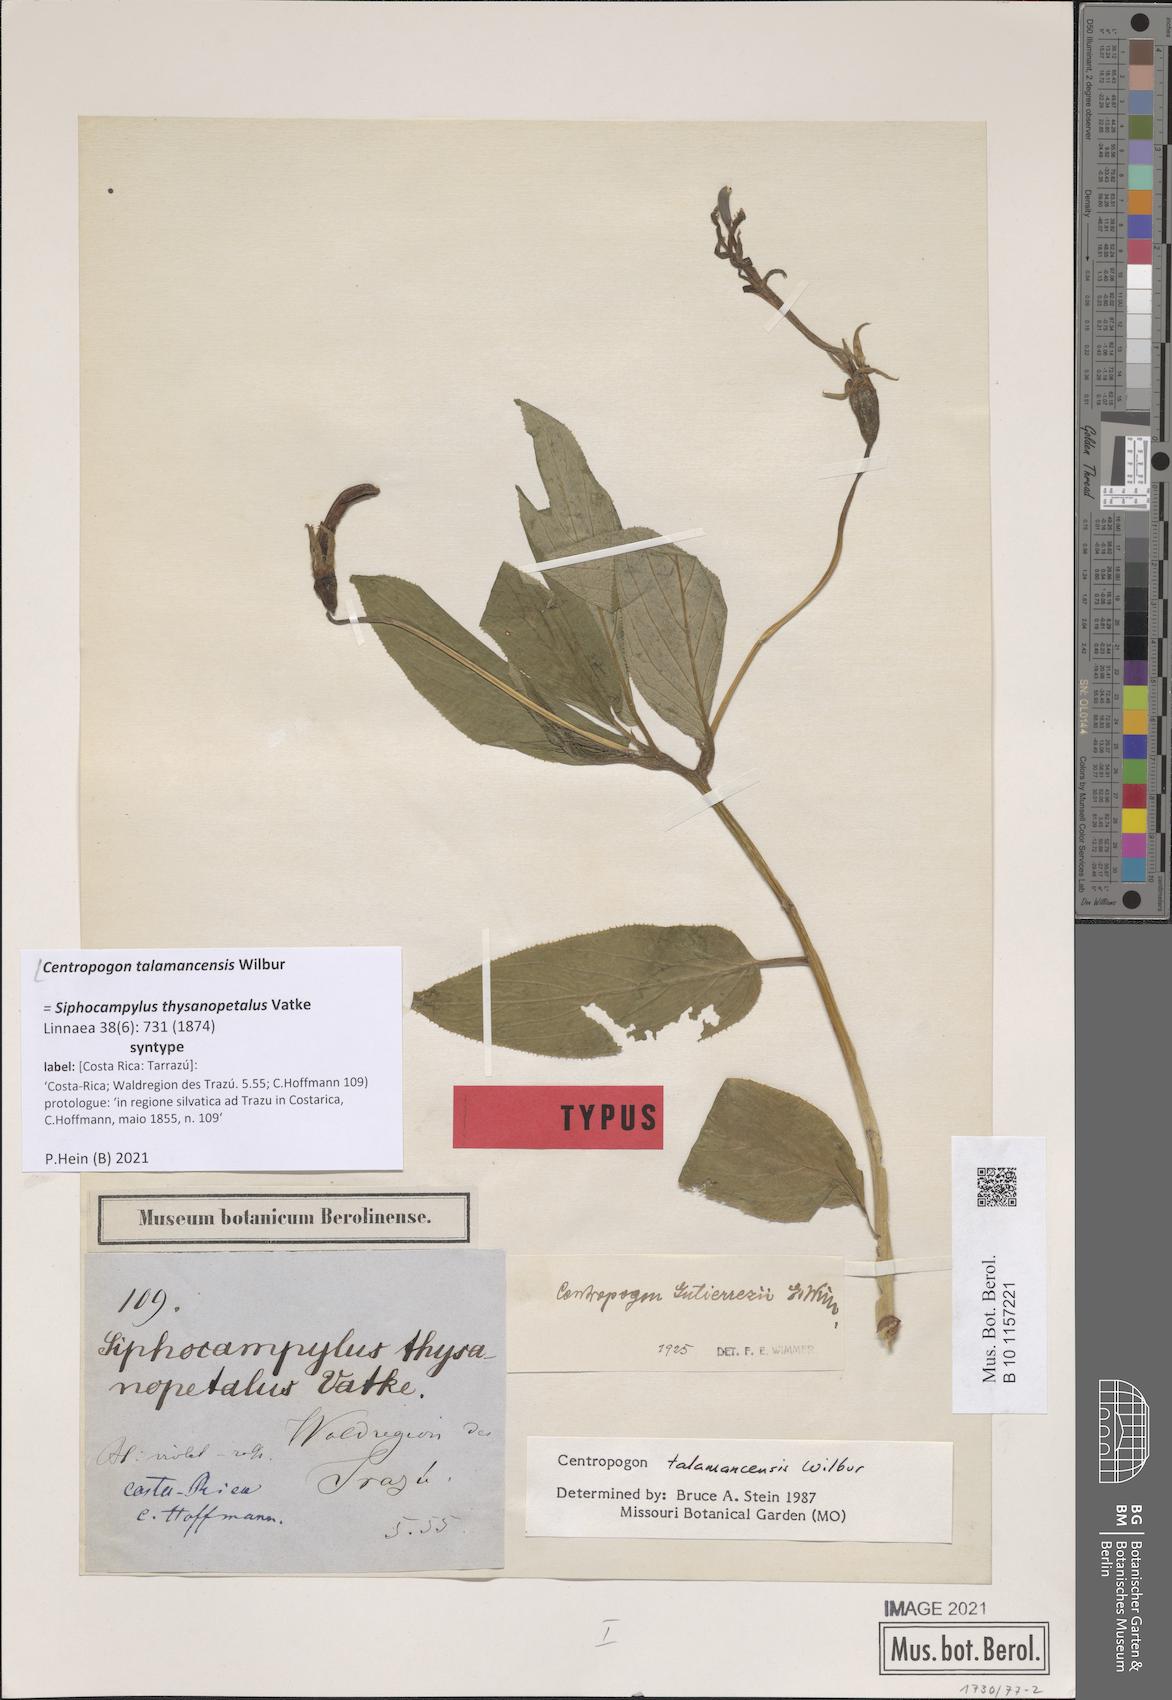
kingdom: Plantae
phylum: Tracheophyta
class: Magnoliopsida
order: Asterales
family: Campanulaceae
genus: Centropogon
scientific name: Centropogon talamancensis
